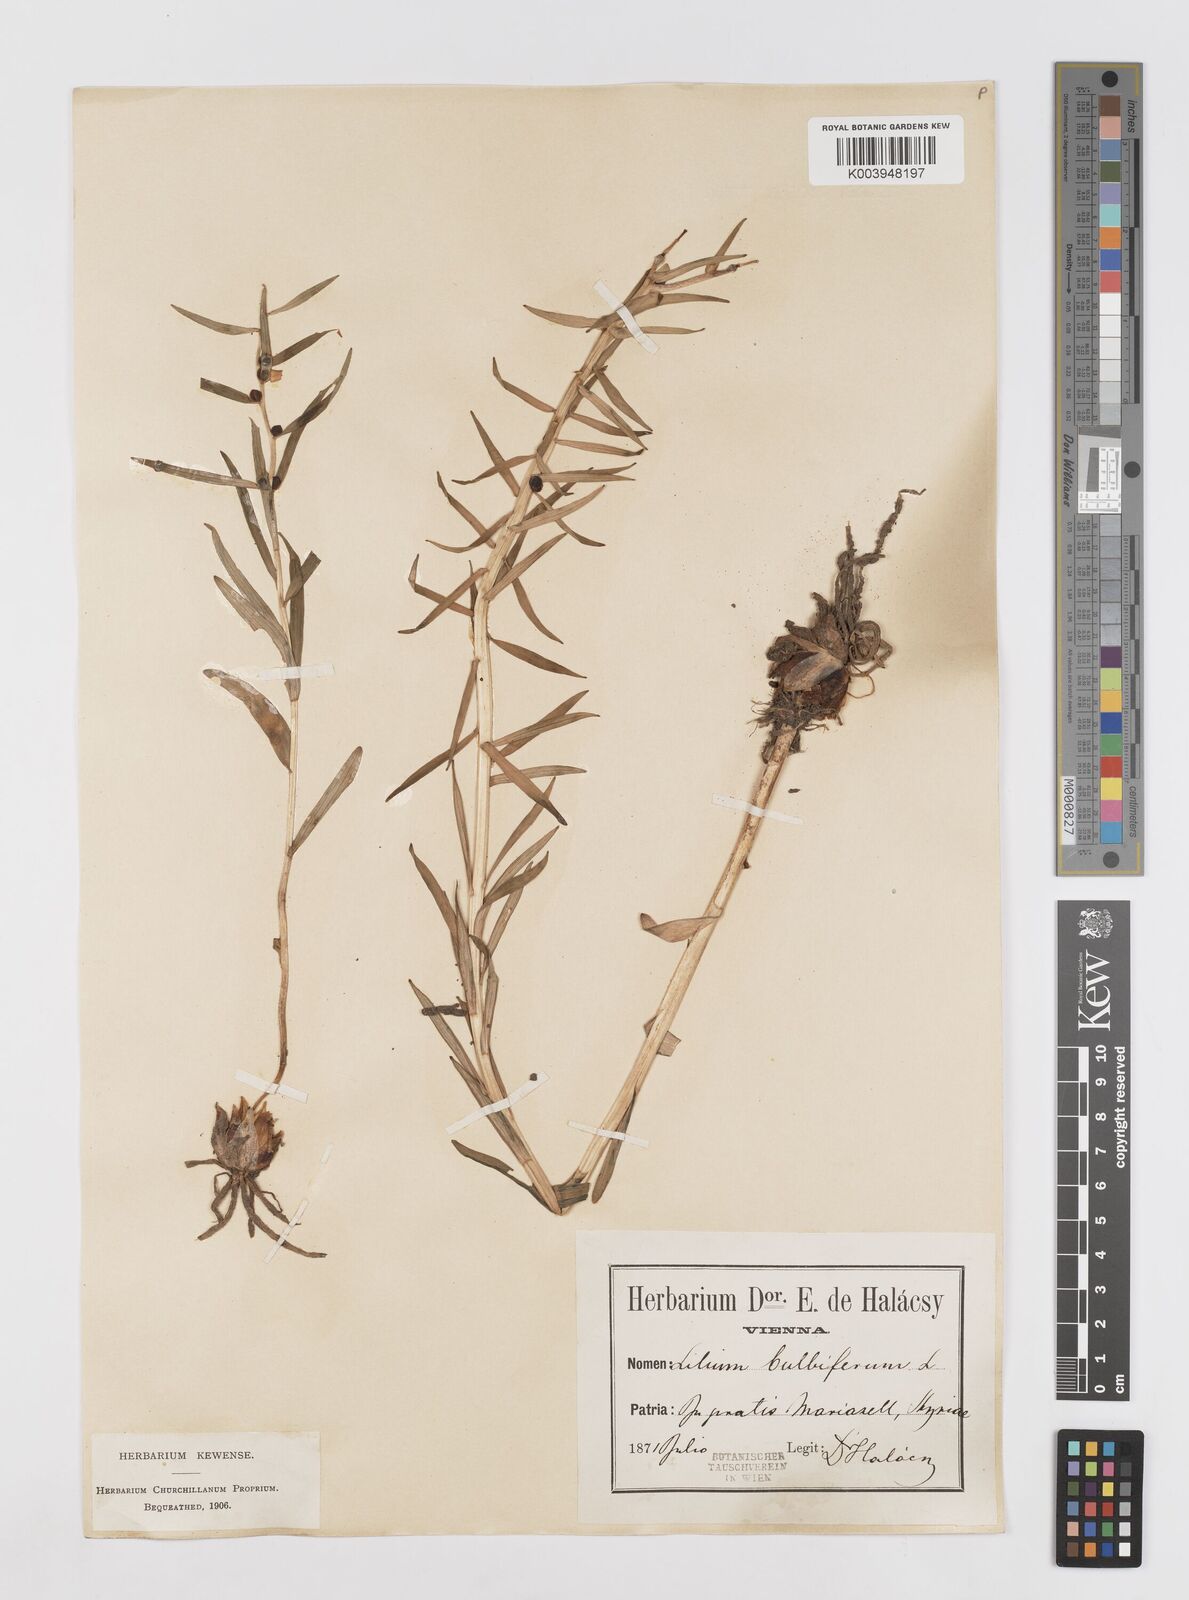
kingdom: Plantae
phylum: Tracheophyta
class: Liliopsida
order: Liliales
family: Liliaceae
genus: Lilium
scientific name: Lilium bulbiferum
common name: Orange lily
